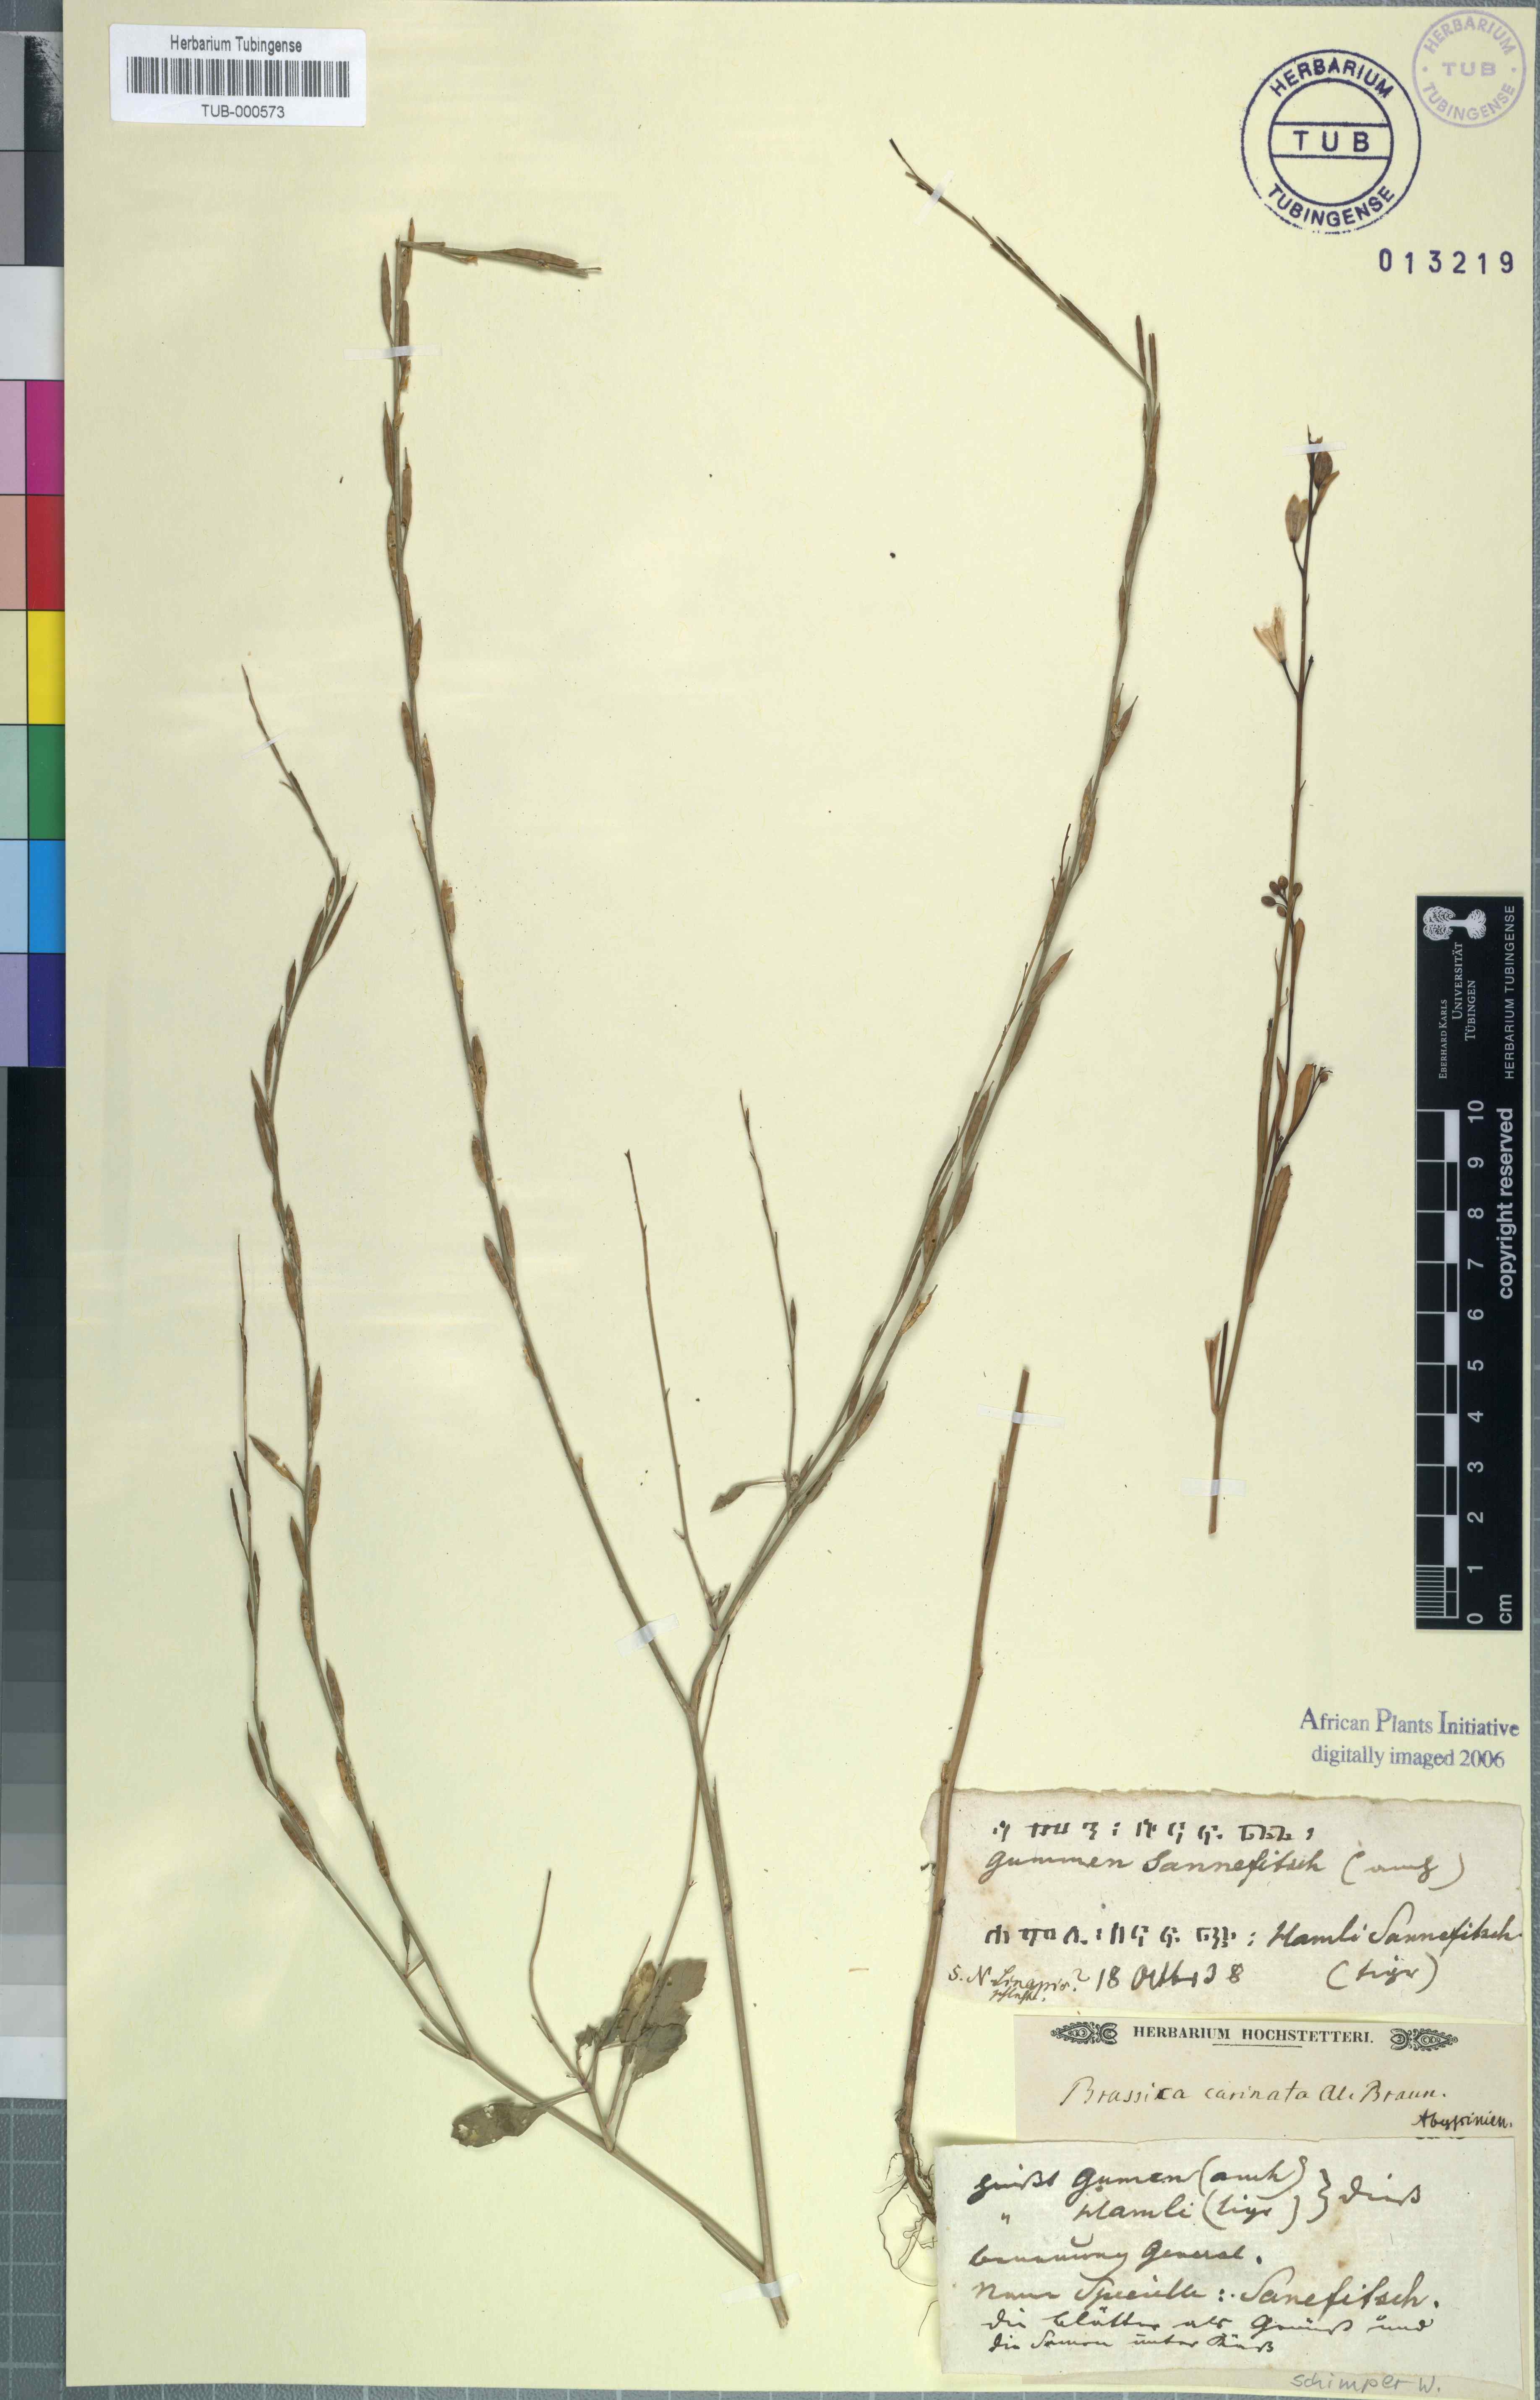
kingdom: Plantae
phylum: Tracheophyta
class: Magnoliopsida
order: Brassicales
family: Brassicaceae
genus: Brassica
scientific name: Brassica carinata
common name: Ethiopian rape
